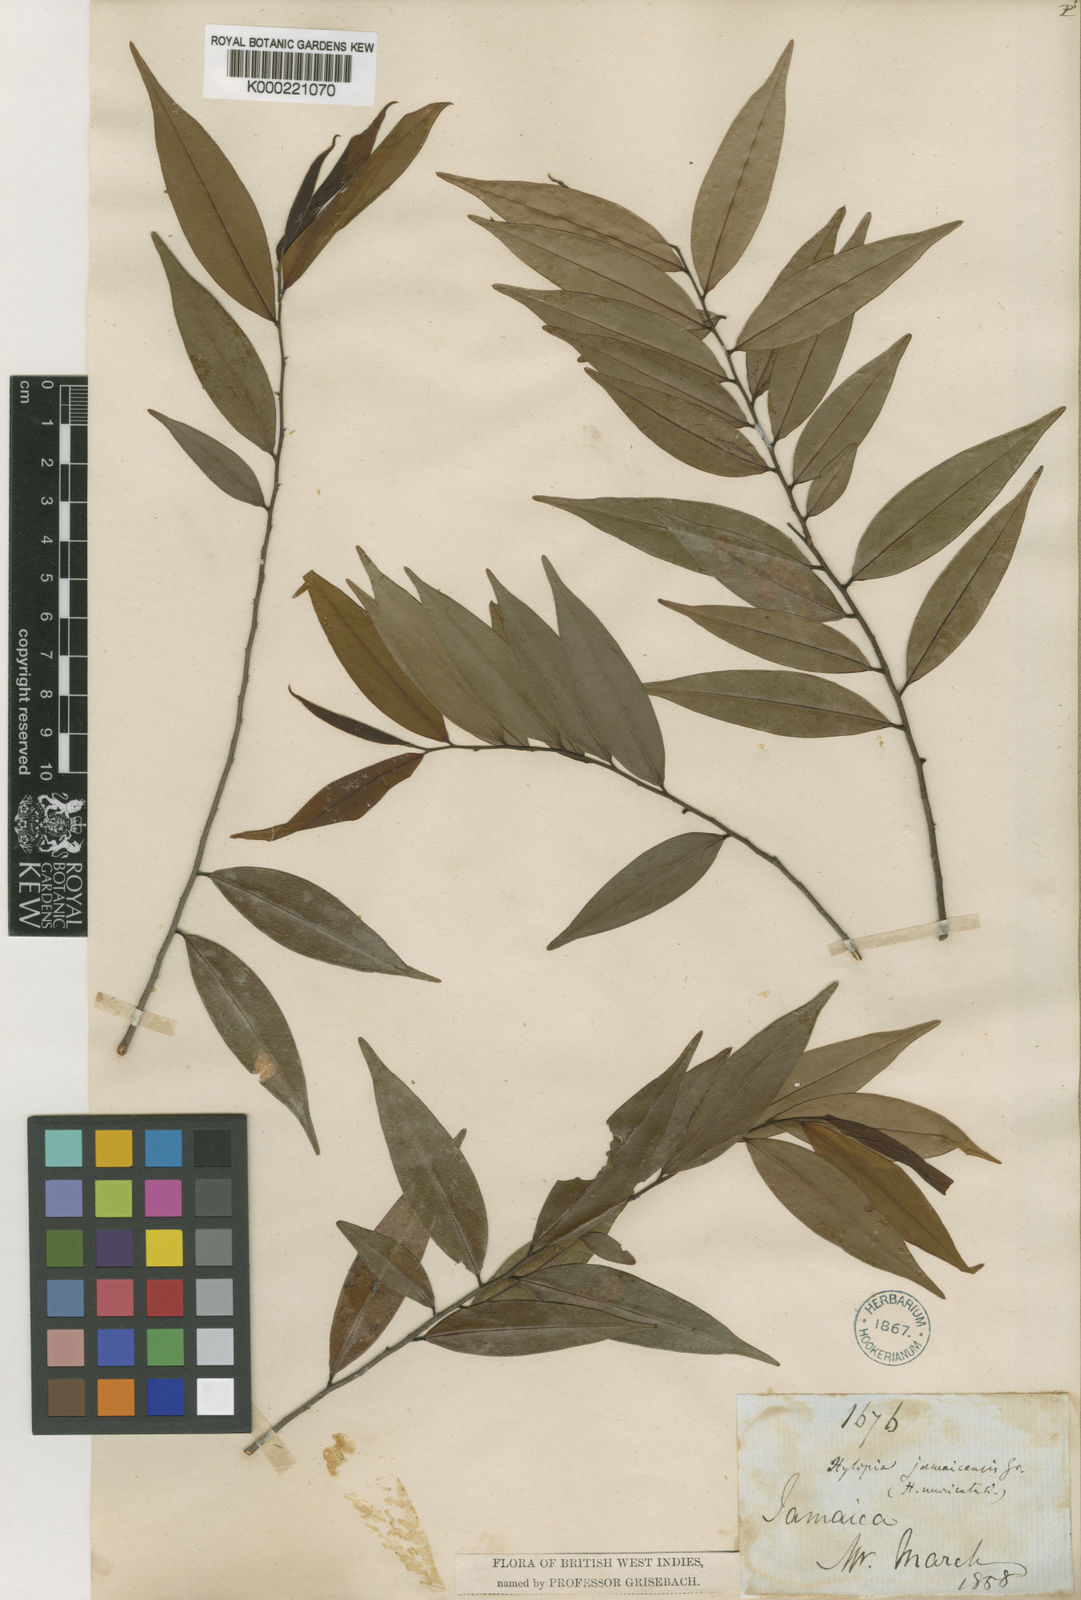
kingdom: Plantae
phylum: Tracheophyta
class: Magnoliopsida
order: Magnoliales
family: Annonaceae
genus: Xylopia
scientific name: Xylopia muricata
